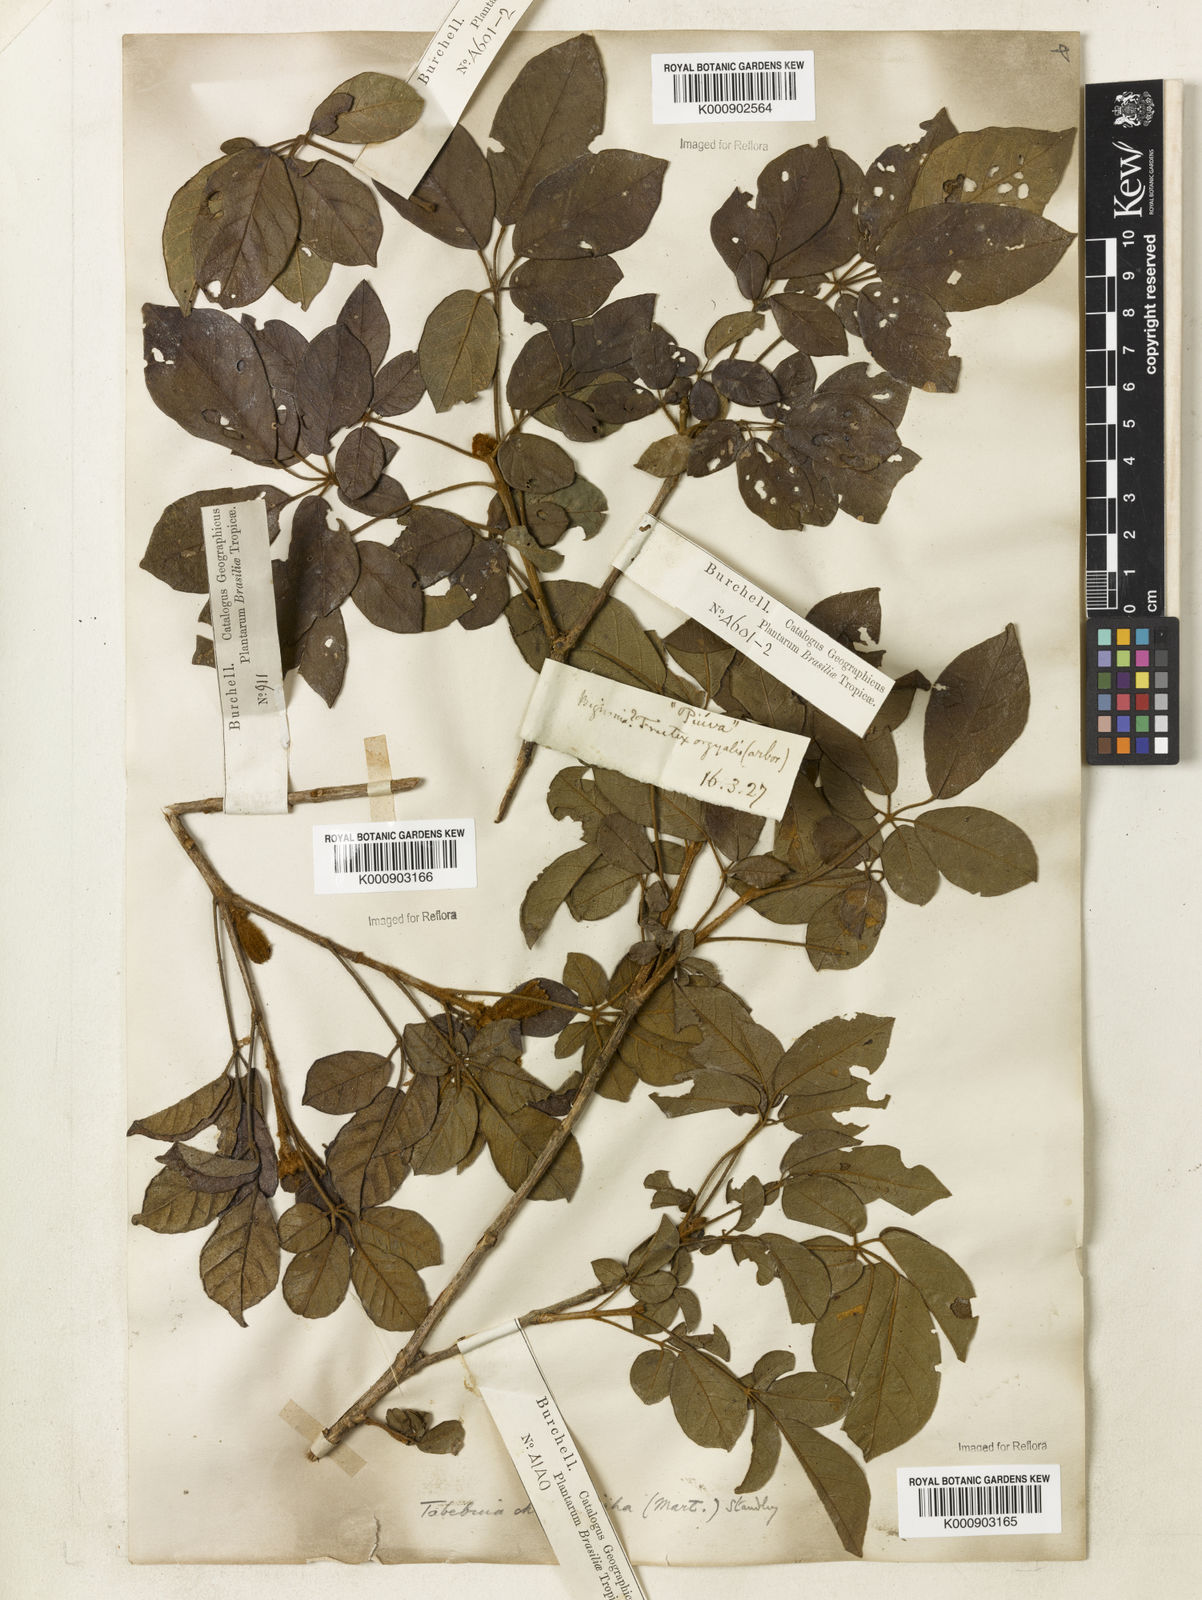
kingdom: Plantae
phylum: Tracheophyta
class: Magnoliopsida
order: Lamiales
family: Bignoniaceae
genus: Handroanthus
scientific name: Handroanthus chrysotrichus
